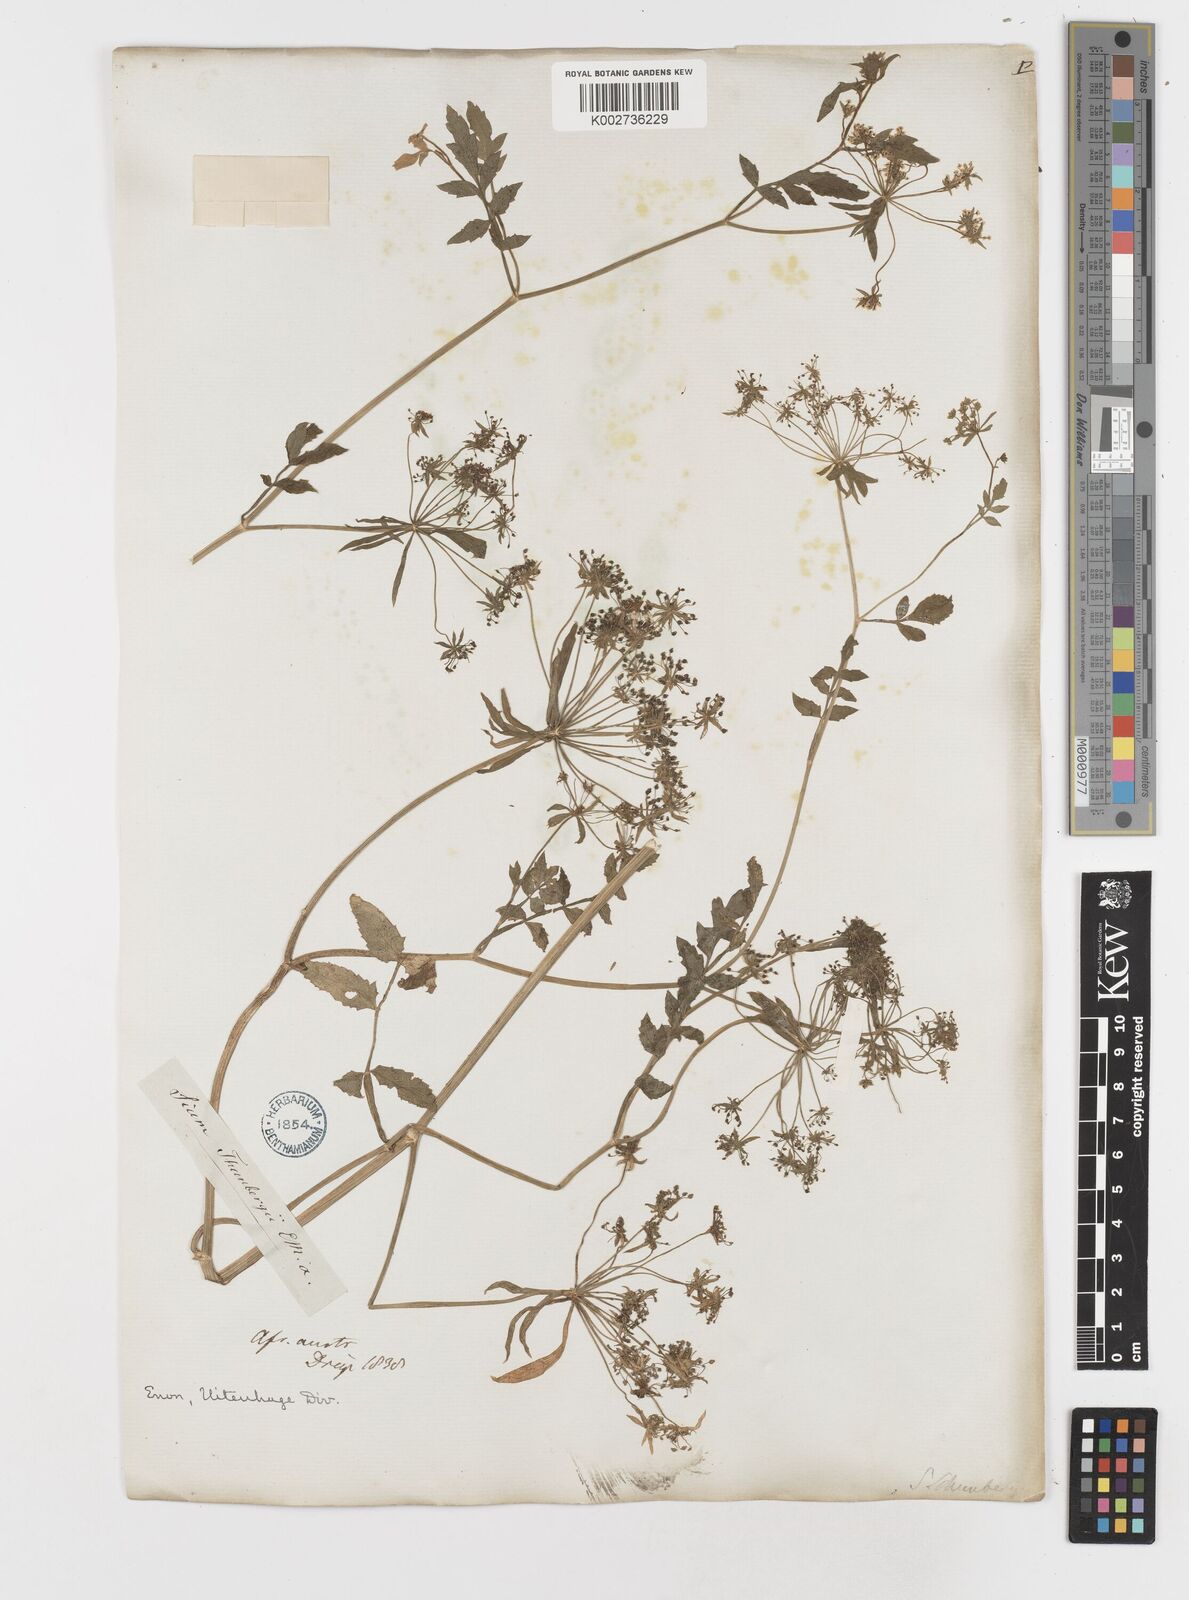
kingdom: Plantae
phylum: Tracheophyta
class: Magnoliopsida
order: Apiales
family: Apiaceae
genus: Berula
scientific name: Berula erecta
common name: Lesser water-parsnip
